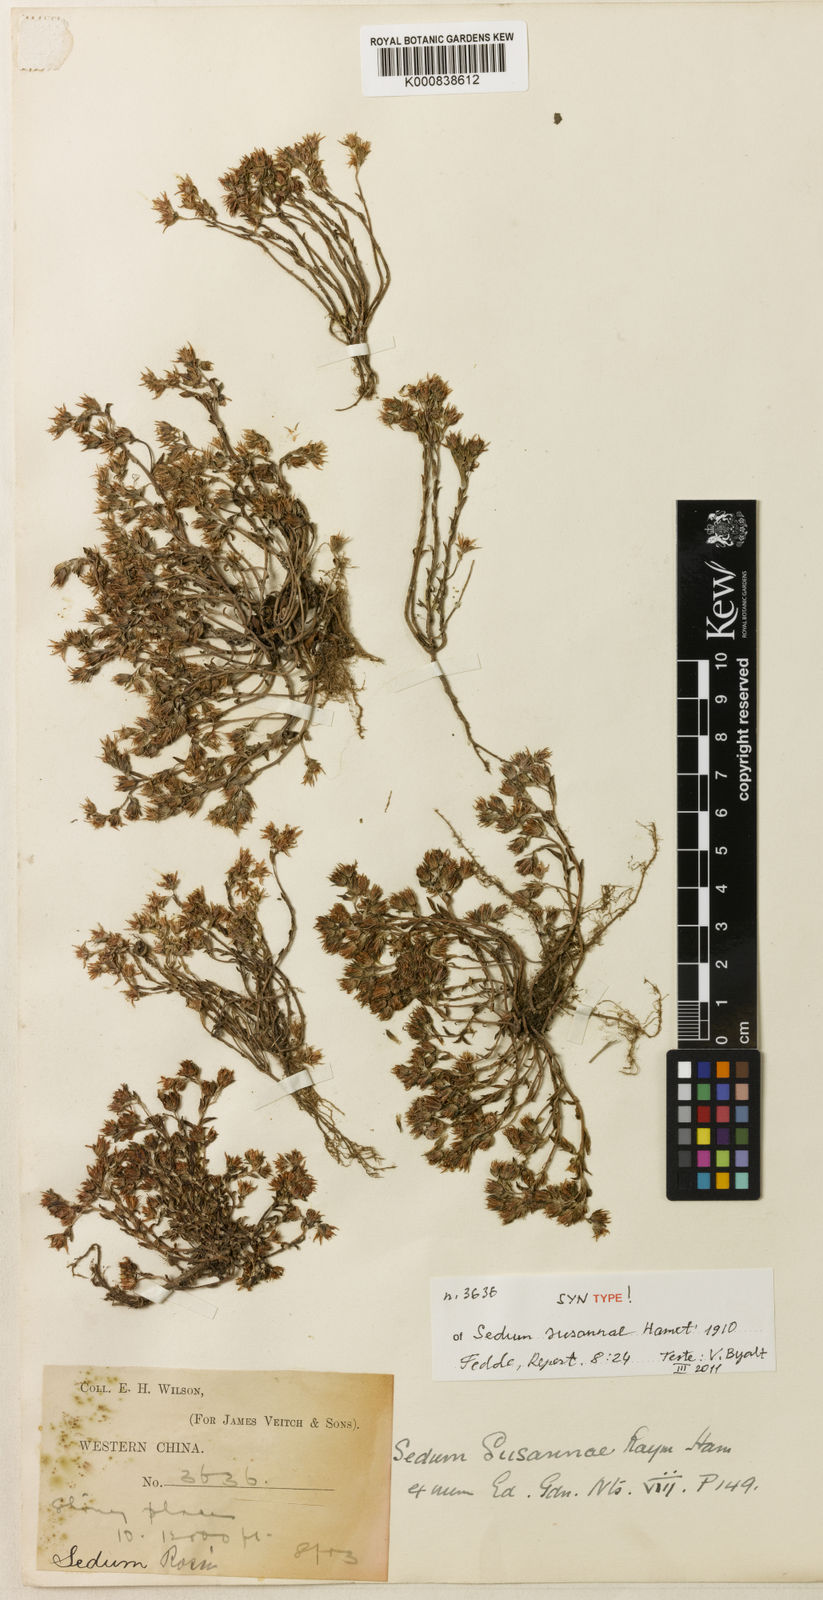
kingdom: Plantae
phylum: Tracheophyta
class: Magnoliopsida
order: Saxifragales
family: Crassulaceae
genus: Sedum
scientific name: Sedum susannae
